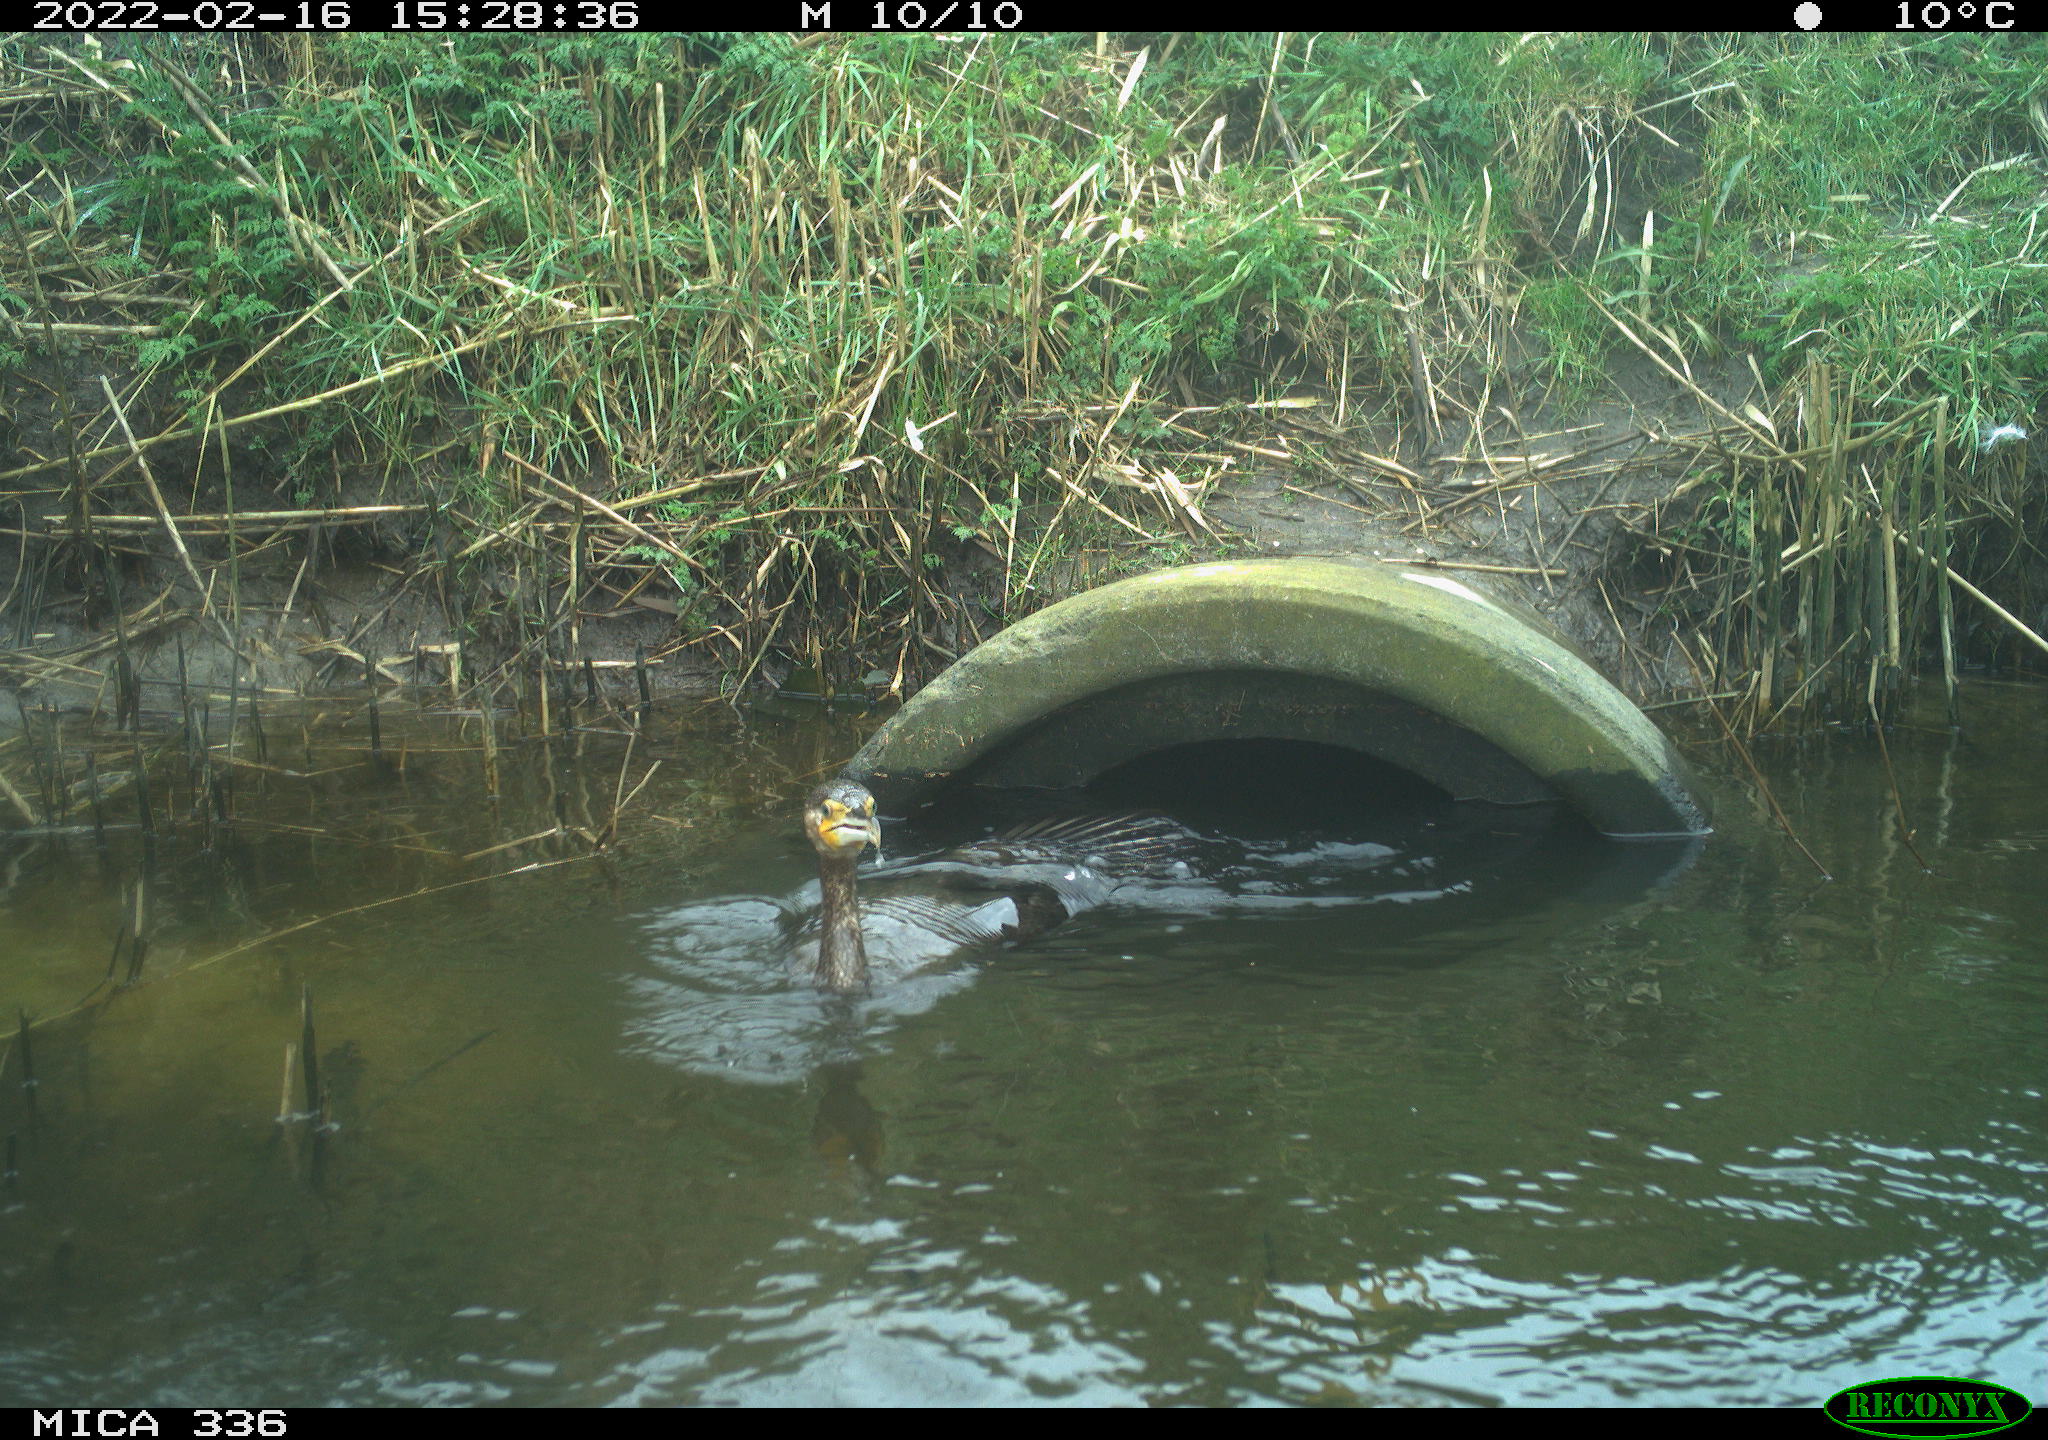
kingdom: Animalia
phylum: Chordata
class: Aves
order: Suliformes
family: Phalacrocoracidae
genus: Phalacrocorax
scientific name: Phalacrocorax carbo
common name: Great cormorant
